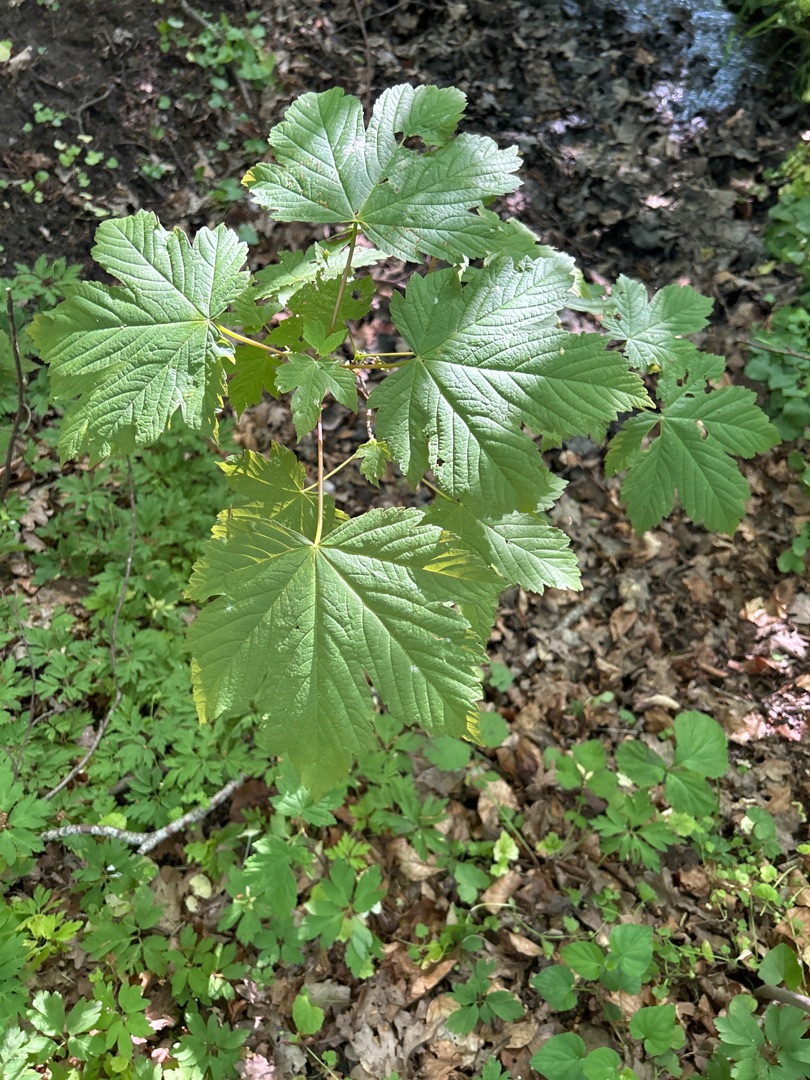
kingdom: Plantae
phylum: Tracheophyta
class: Magnoliopsida
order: Sapindales
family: Sapindaceae
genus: Acer
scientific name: Acer pseudoplatanus
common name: Ahorn
